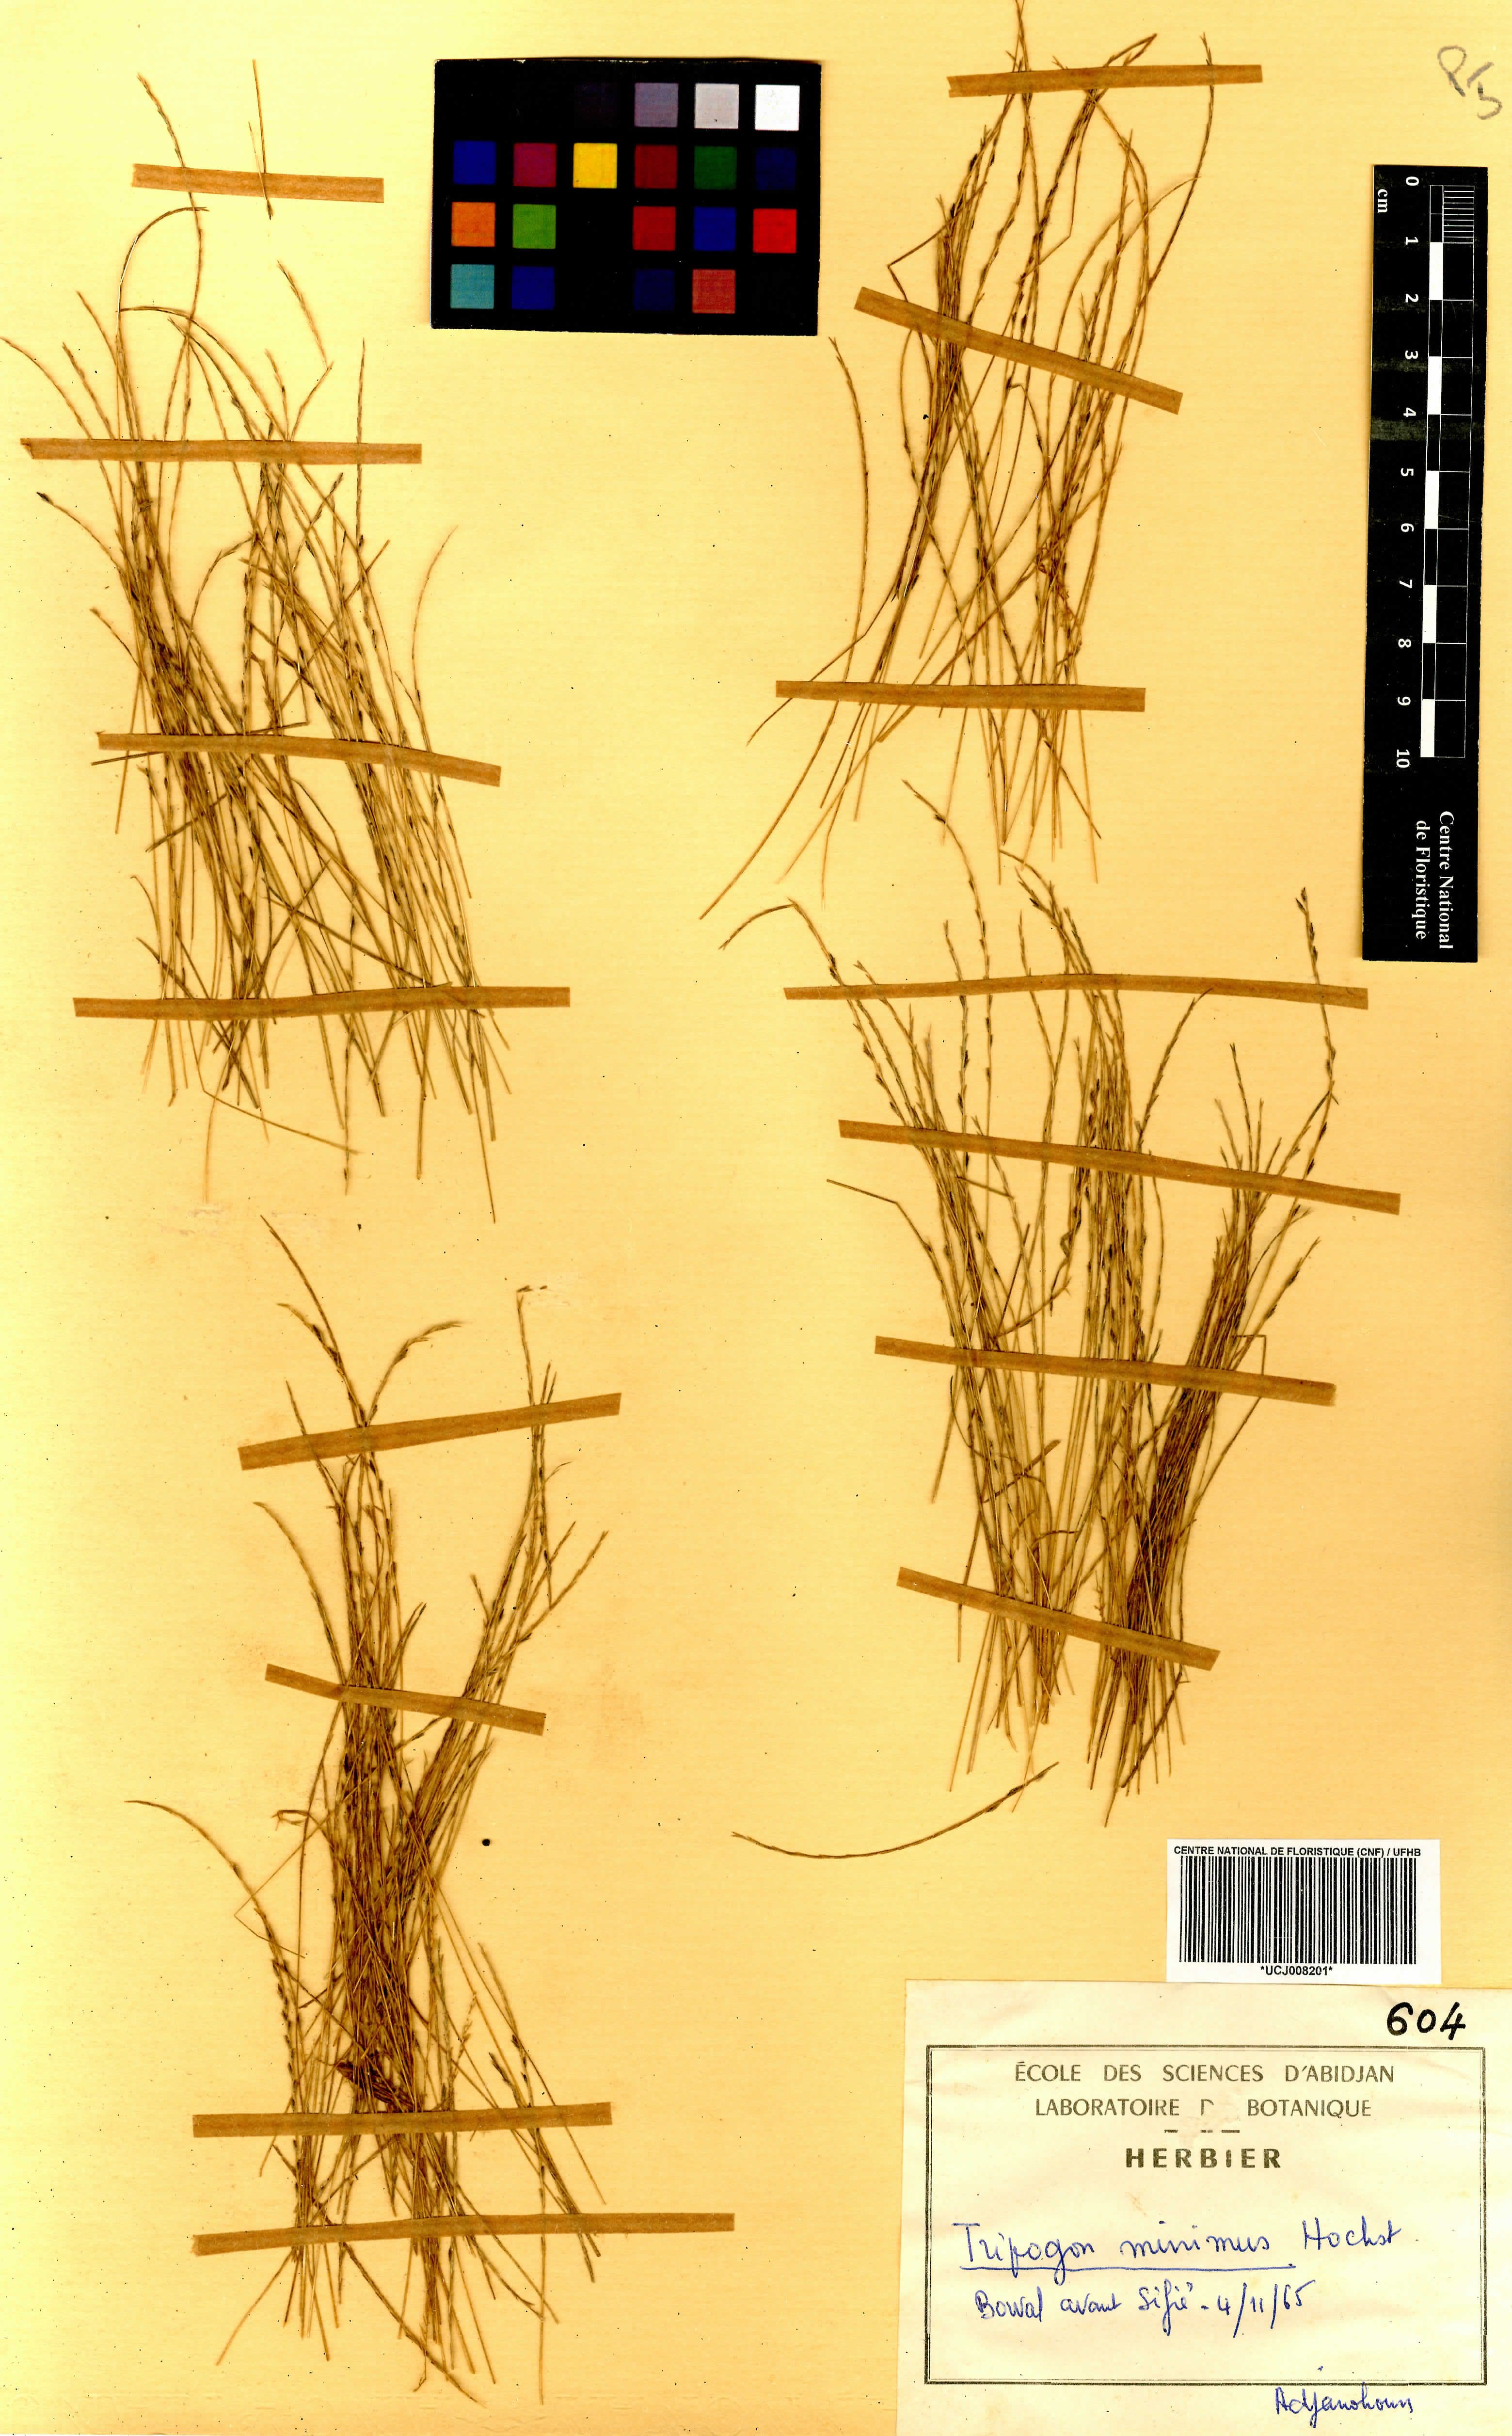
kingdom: Plantae
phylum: Tracheophyta
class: Liliopsida
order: Poales
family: Poaceae
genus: Tripogonella
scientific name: Tripogonella minima
